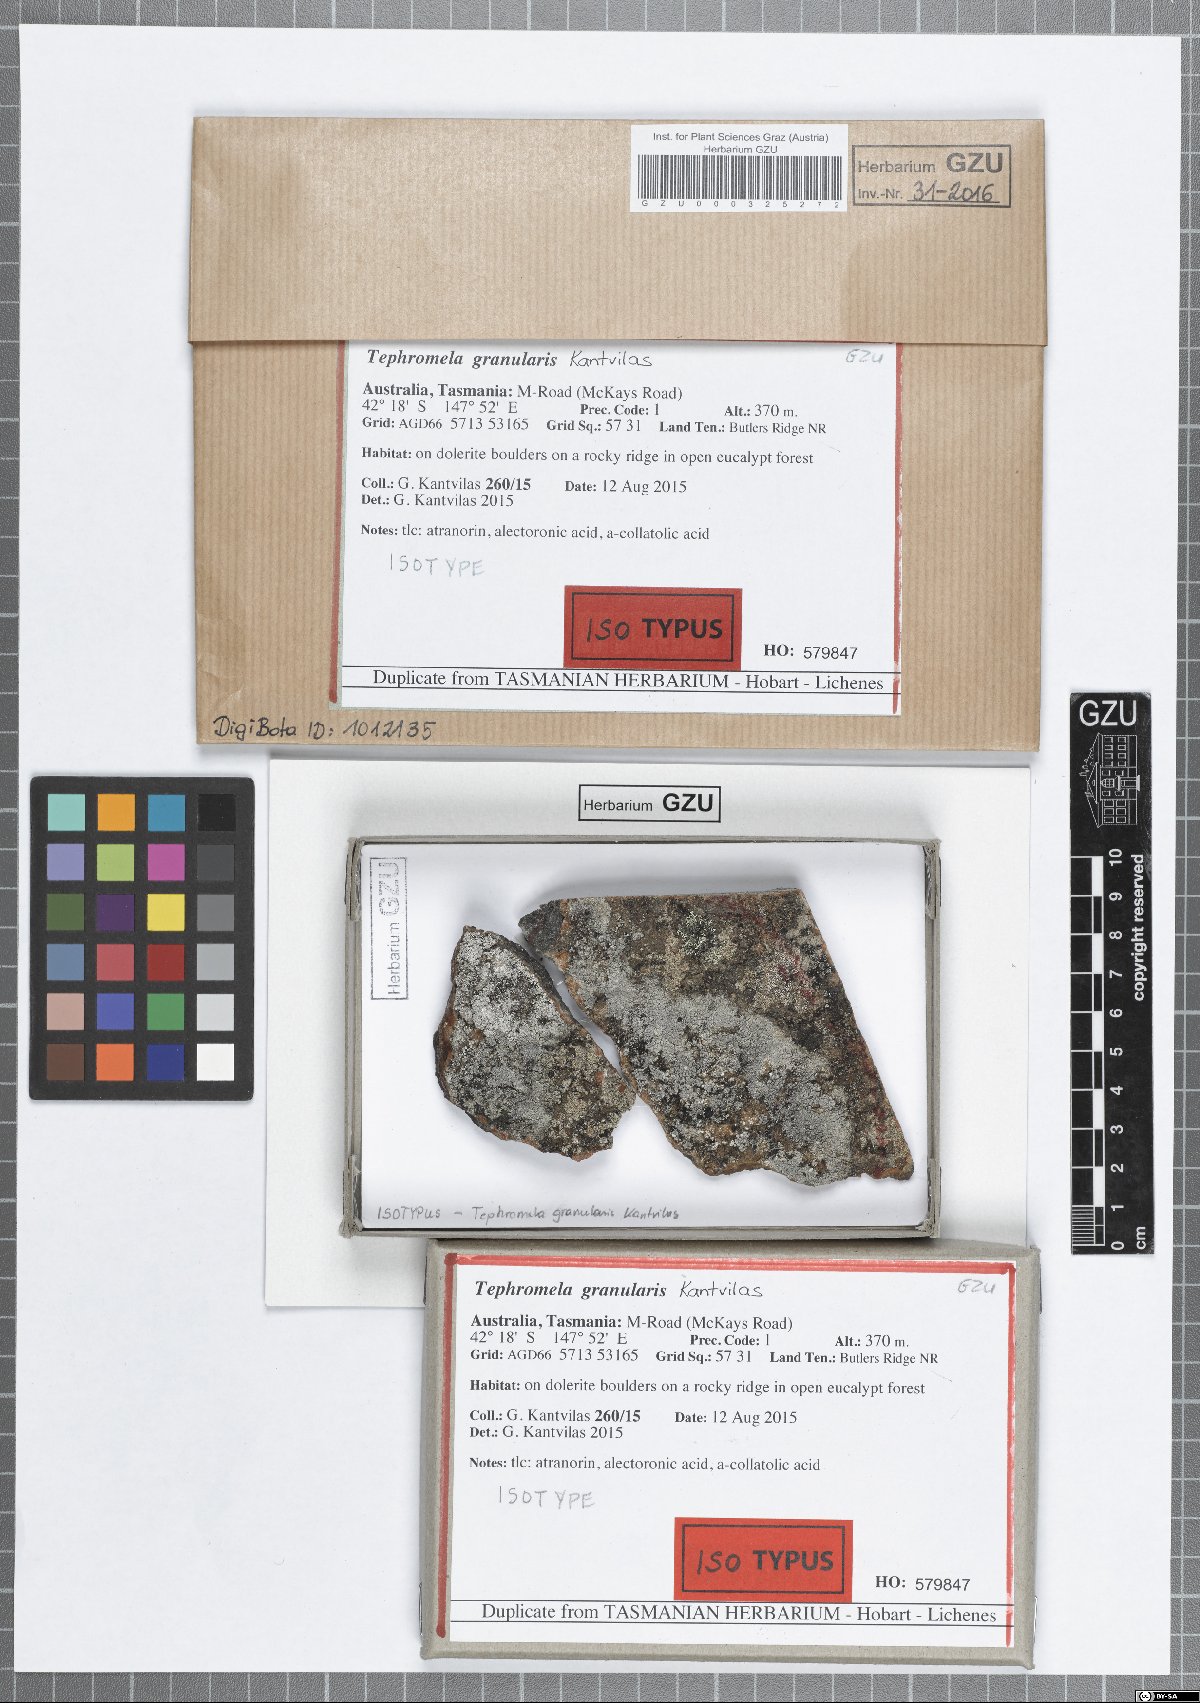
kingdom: Fungi
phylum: Ascomycota
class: Lecanoromycetes
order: Lecanorales
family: Tephromelataceae
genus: Tephromela
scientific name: Tephromela granularis
